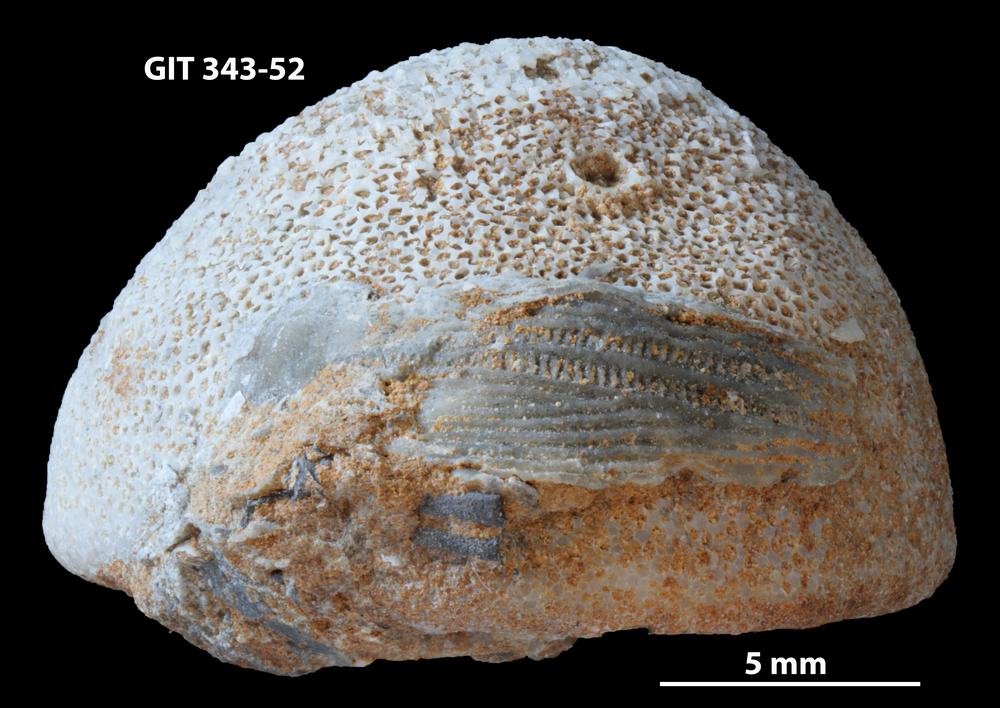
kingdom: Animalia
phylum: Bryozoa
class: Stenolaemata
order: Trepostomatida
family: Monticuliporidae
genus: Mesotrypa
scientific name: Mesotrypa orientalis
